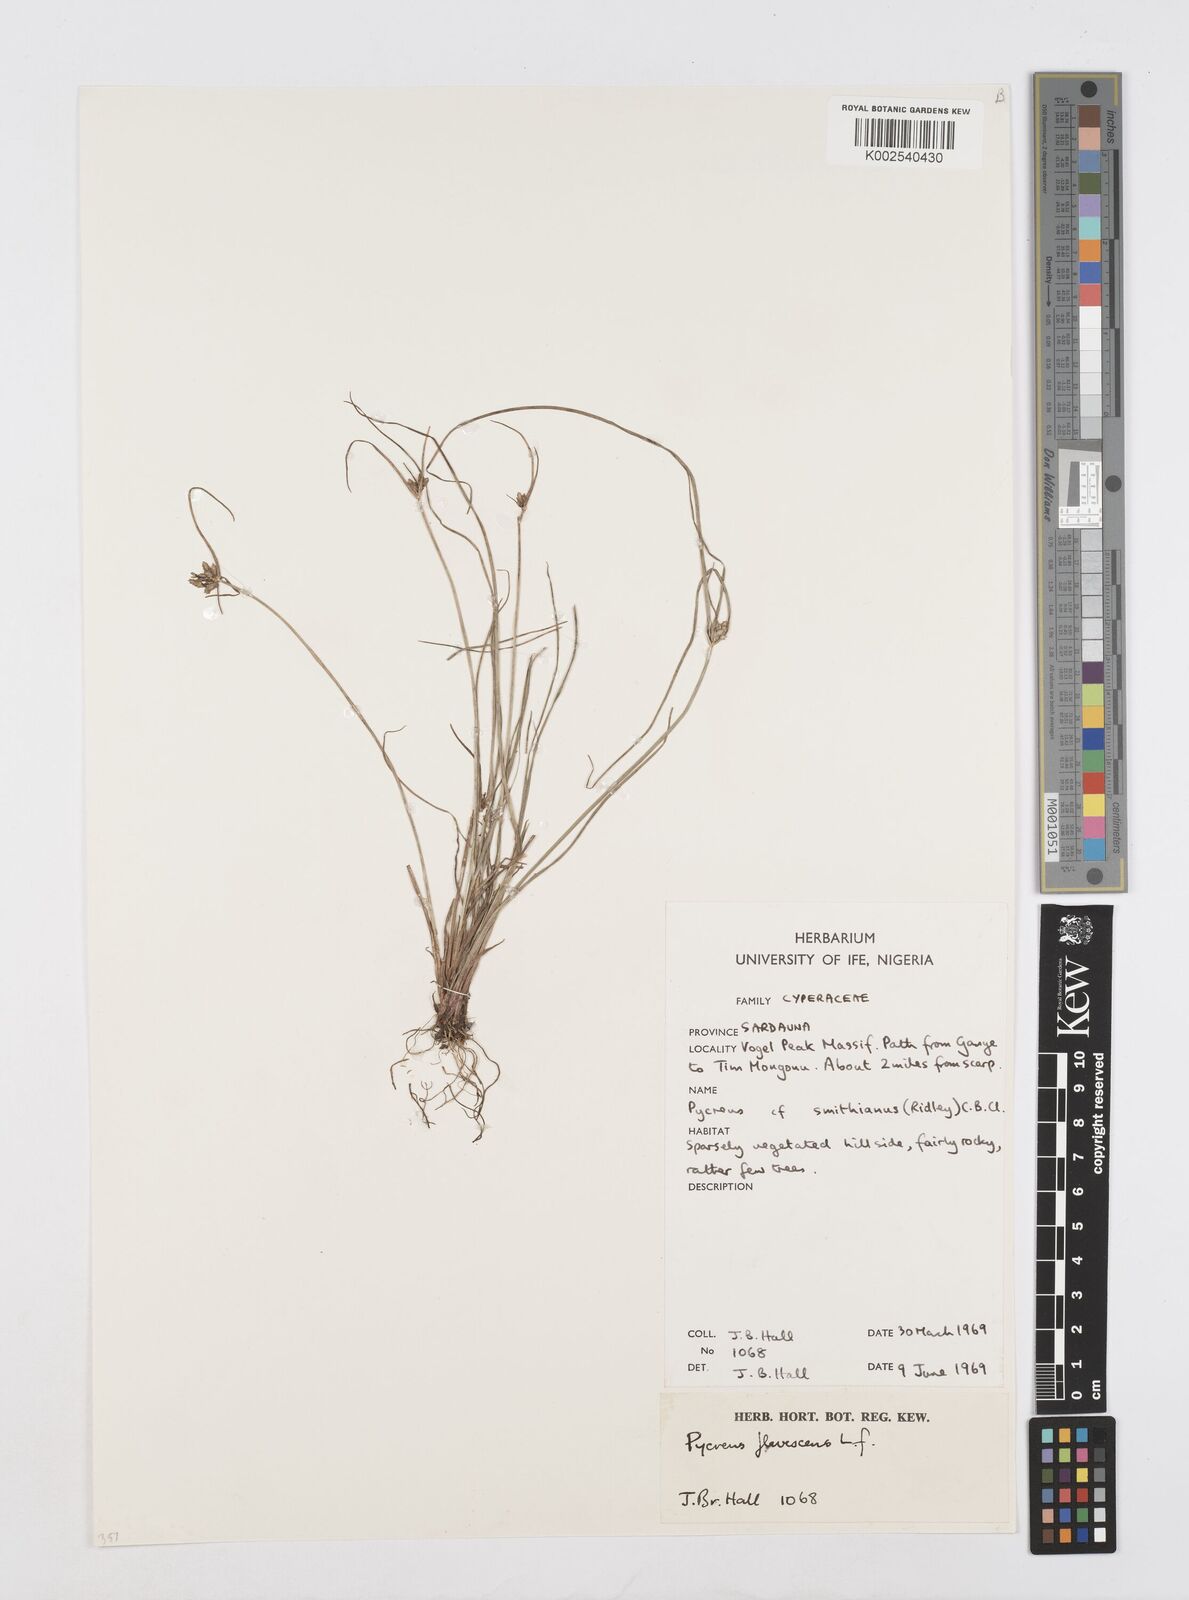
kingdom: Plantae
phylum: Tracheophyta
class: Liliopsida
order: Poales
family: Cyperaceae
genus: Cyperus
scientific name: Cyperus flavescens
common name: Yellow galingale
